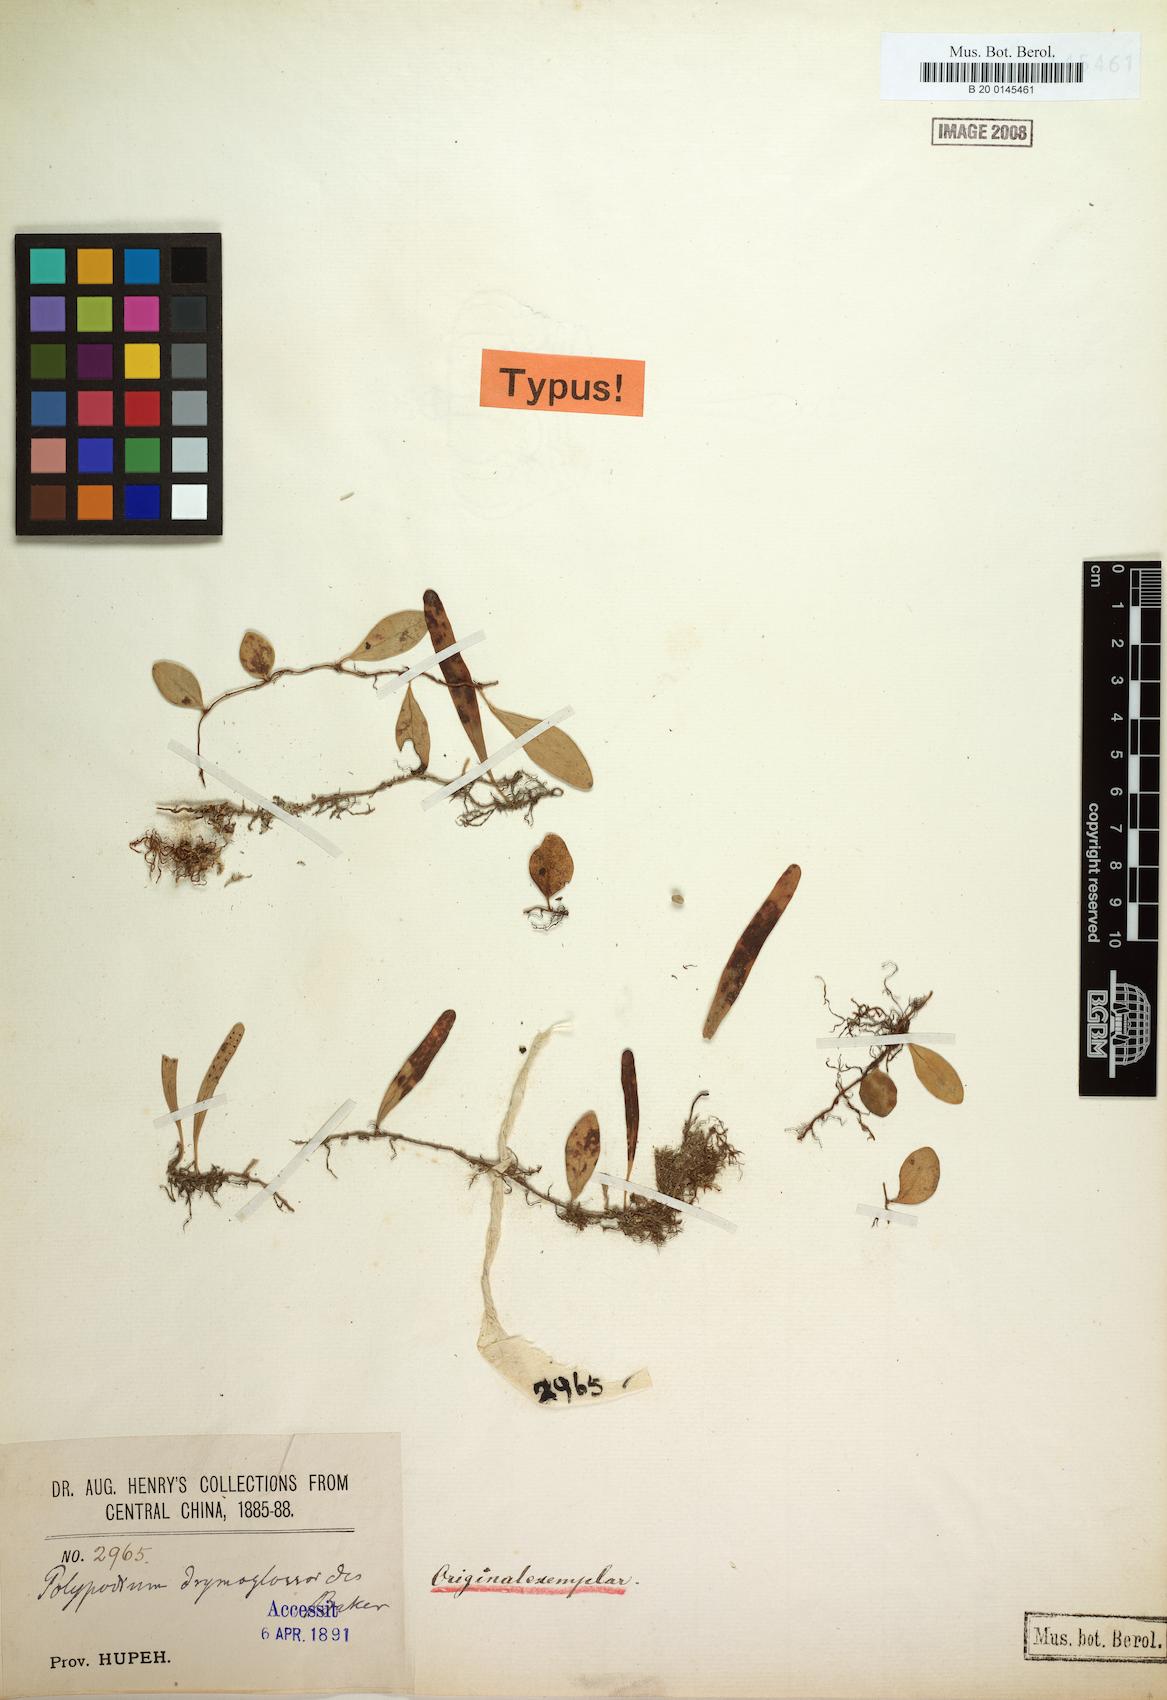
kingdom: Plantae
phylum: Tracheophyta
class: Polypodiopsida
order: Polypodiales
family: Polypodiaceae
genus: Lepisorus
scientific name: Lepisorus carnosus
